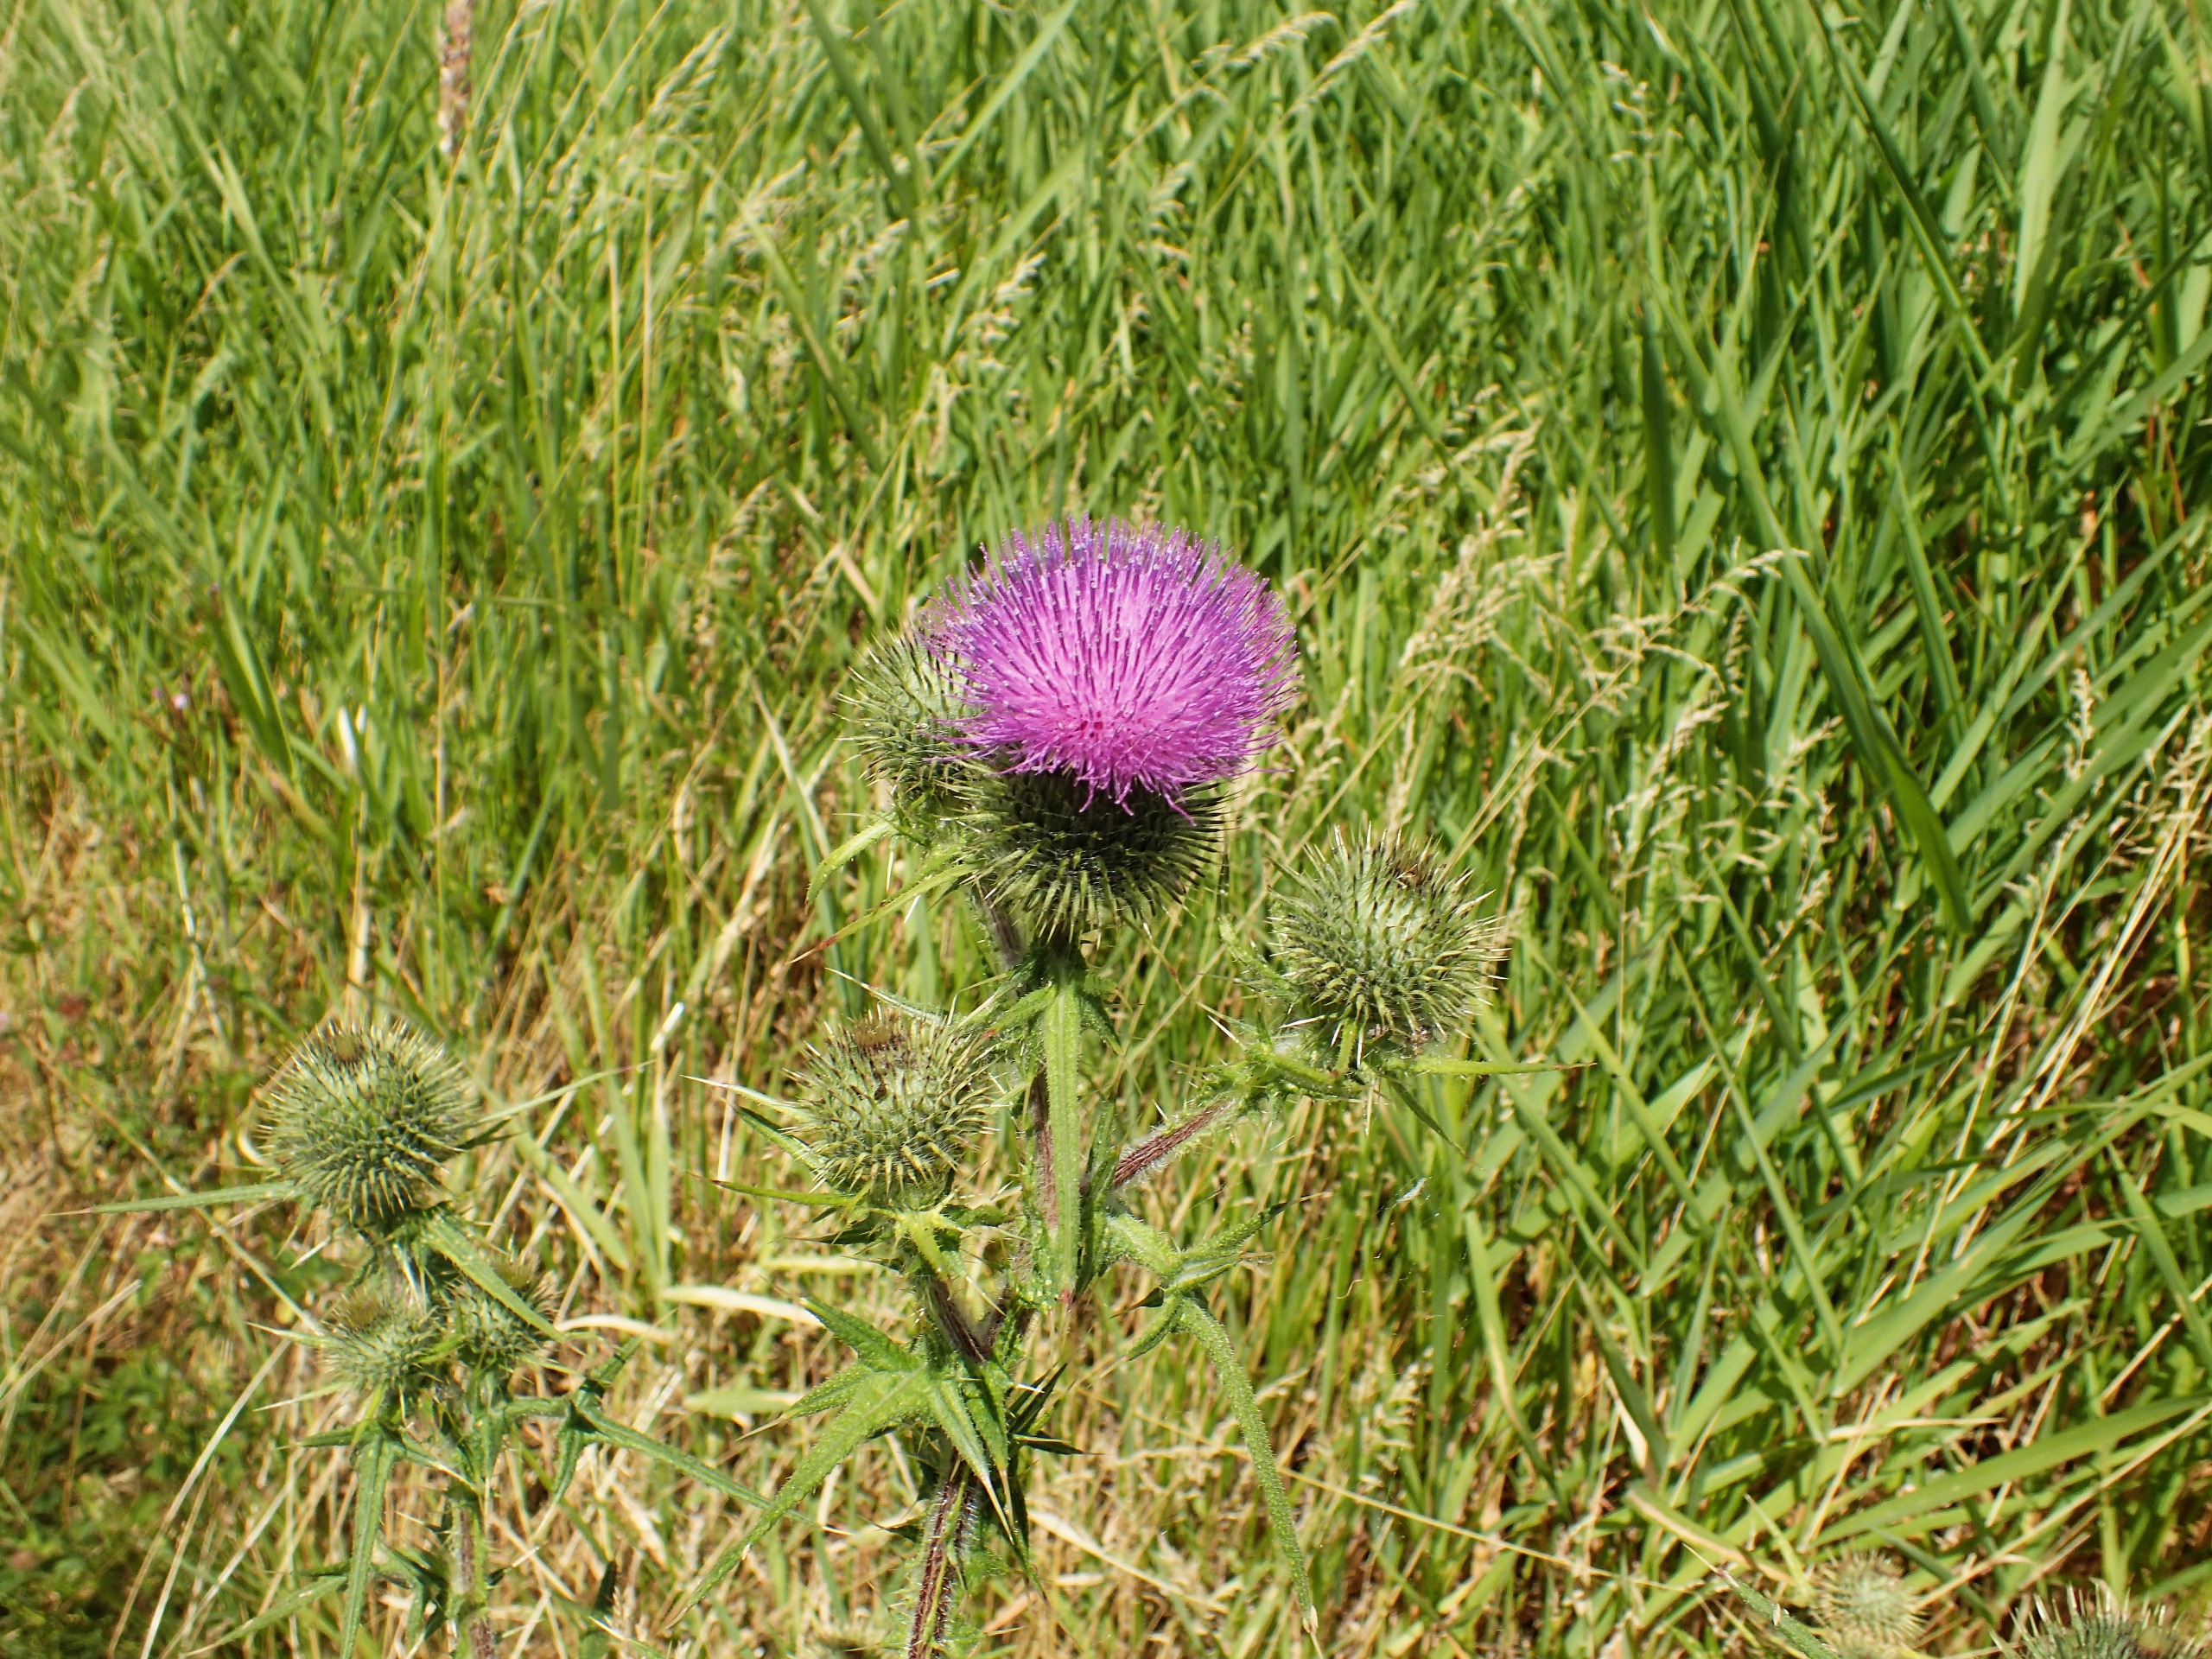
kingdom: Plantae
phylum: Tracheophyta
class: Magnoliopsida
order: Asterales
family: Asteraceae
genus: Cirsium
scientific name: Cirsium vulgare
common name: Horse-tidsel
